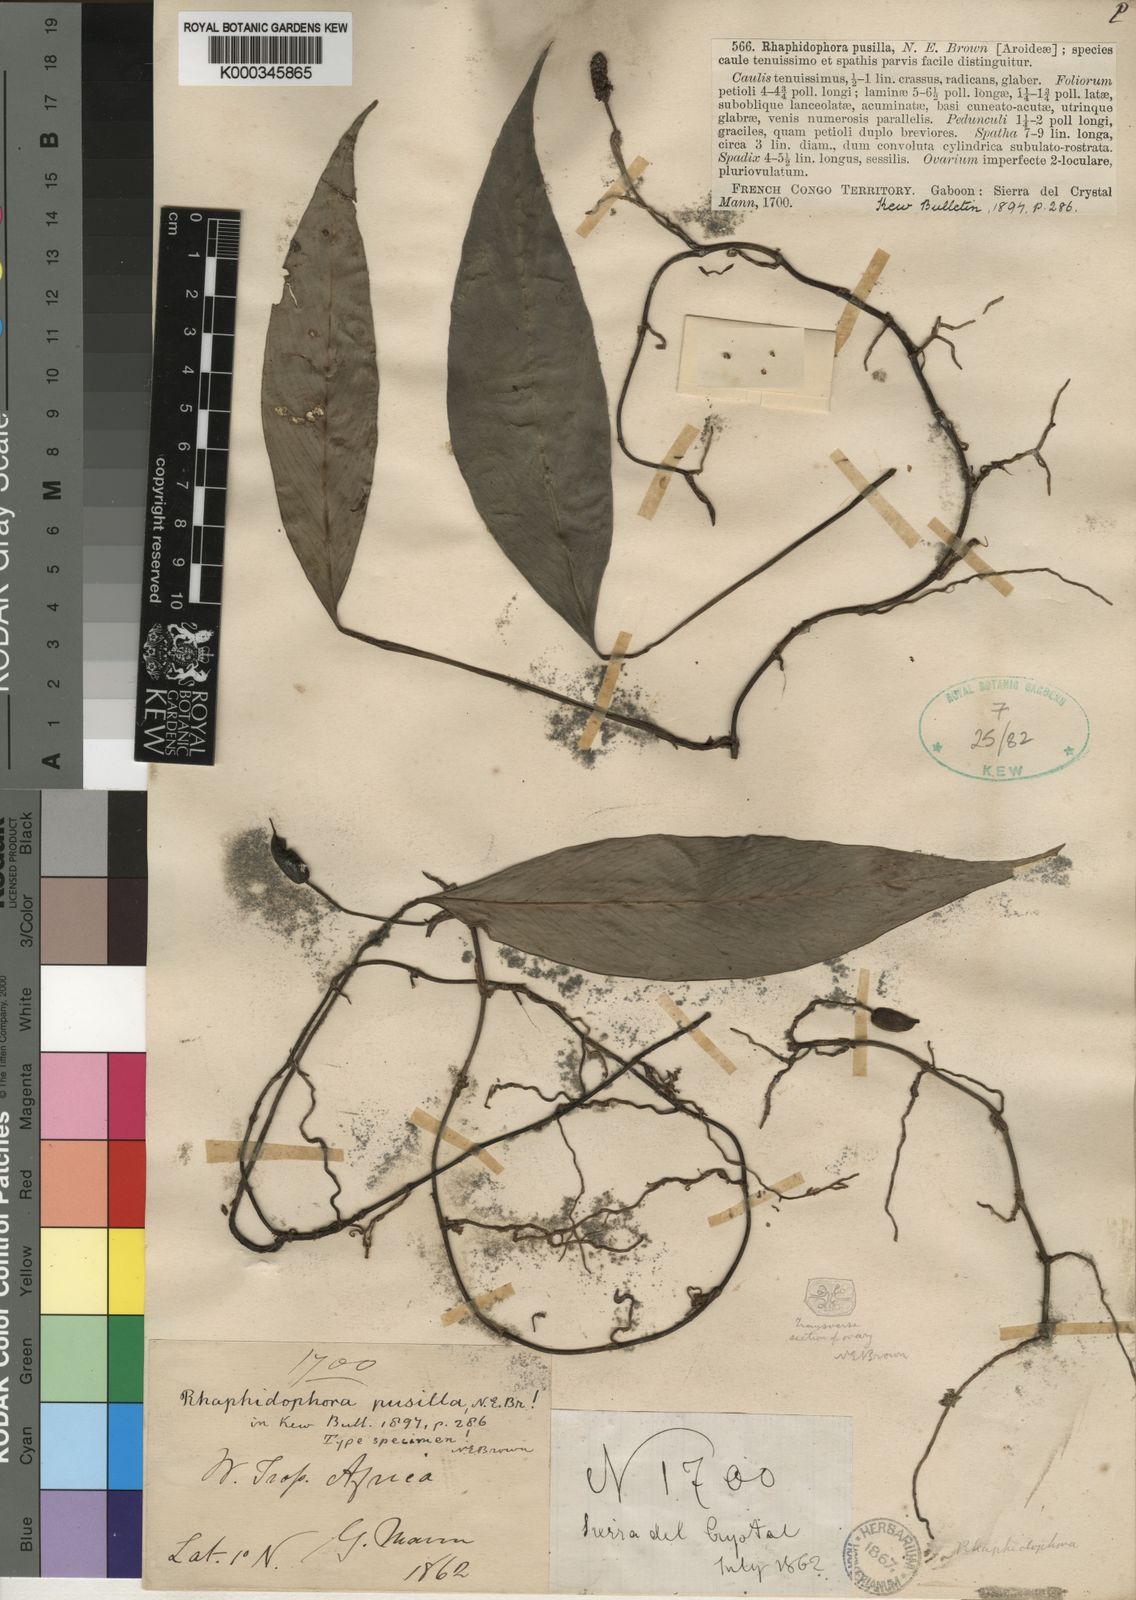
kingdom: Plantae
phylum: Tracheophyta
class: Liliopsida
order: Alismatales
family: Araceae
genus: Rhaphidophora
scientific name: Rhaphidophora pusilla
